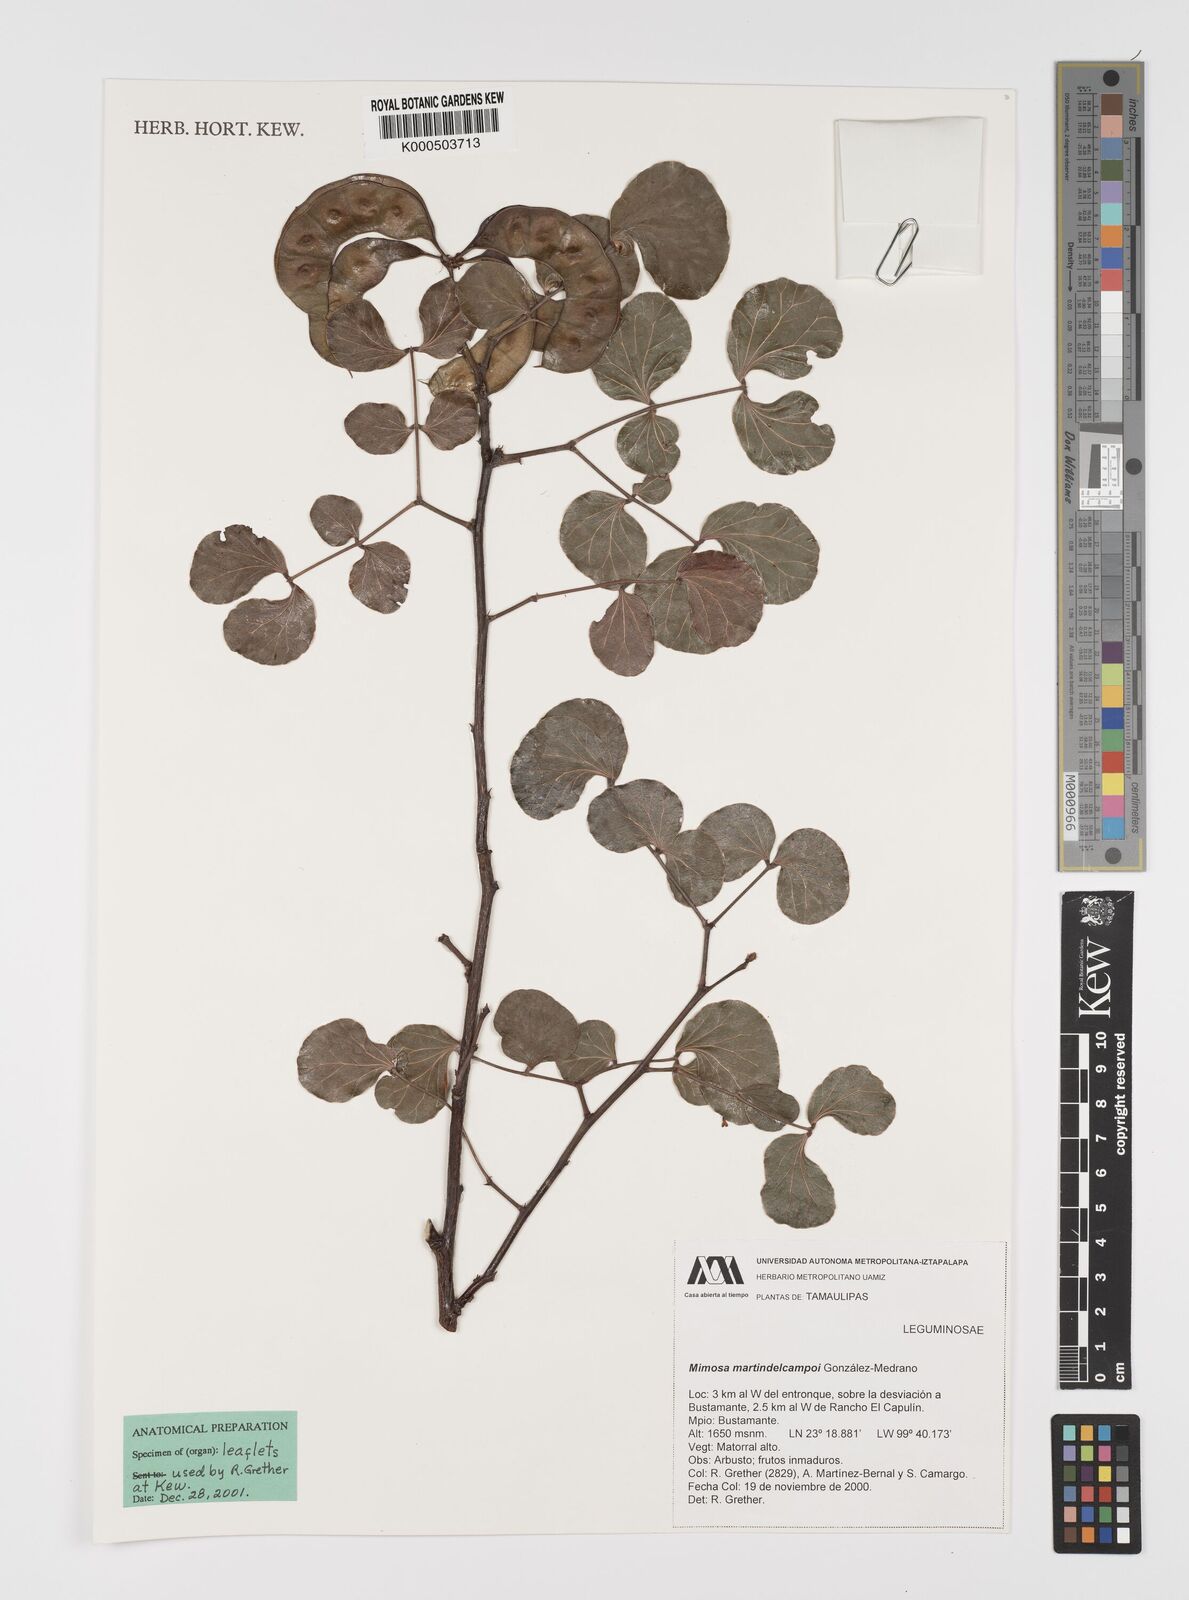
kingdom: Plantae
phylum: Tracheophyta
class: Magnoliopsida
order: Fabales
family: Fabaceae
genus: Mimosa
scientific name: Mimosa martin-delcampoi
